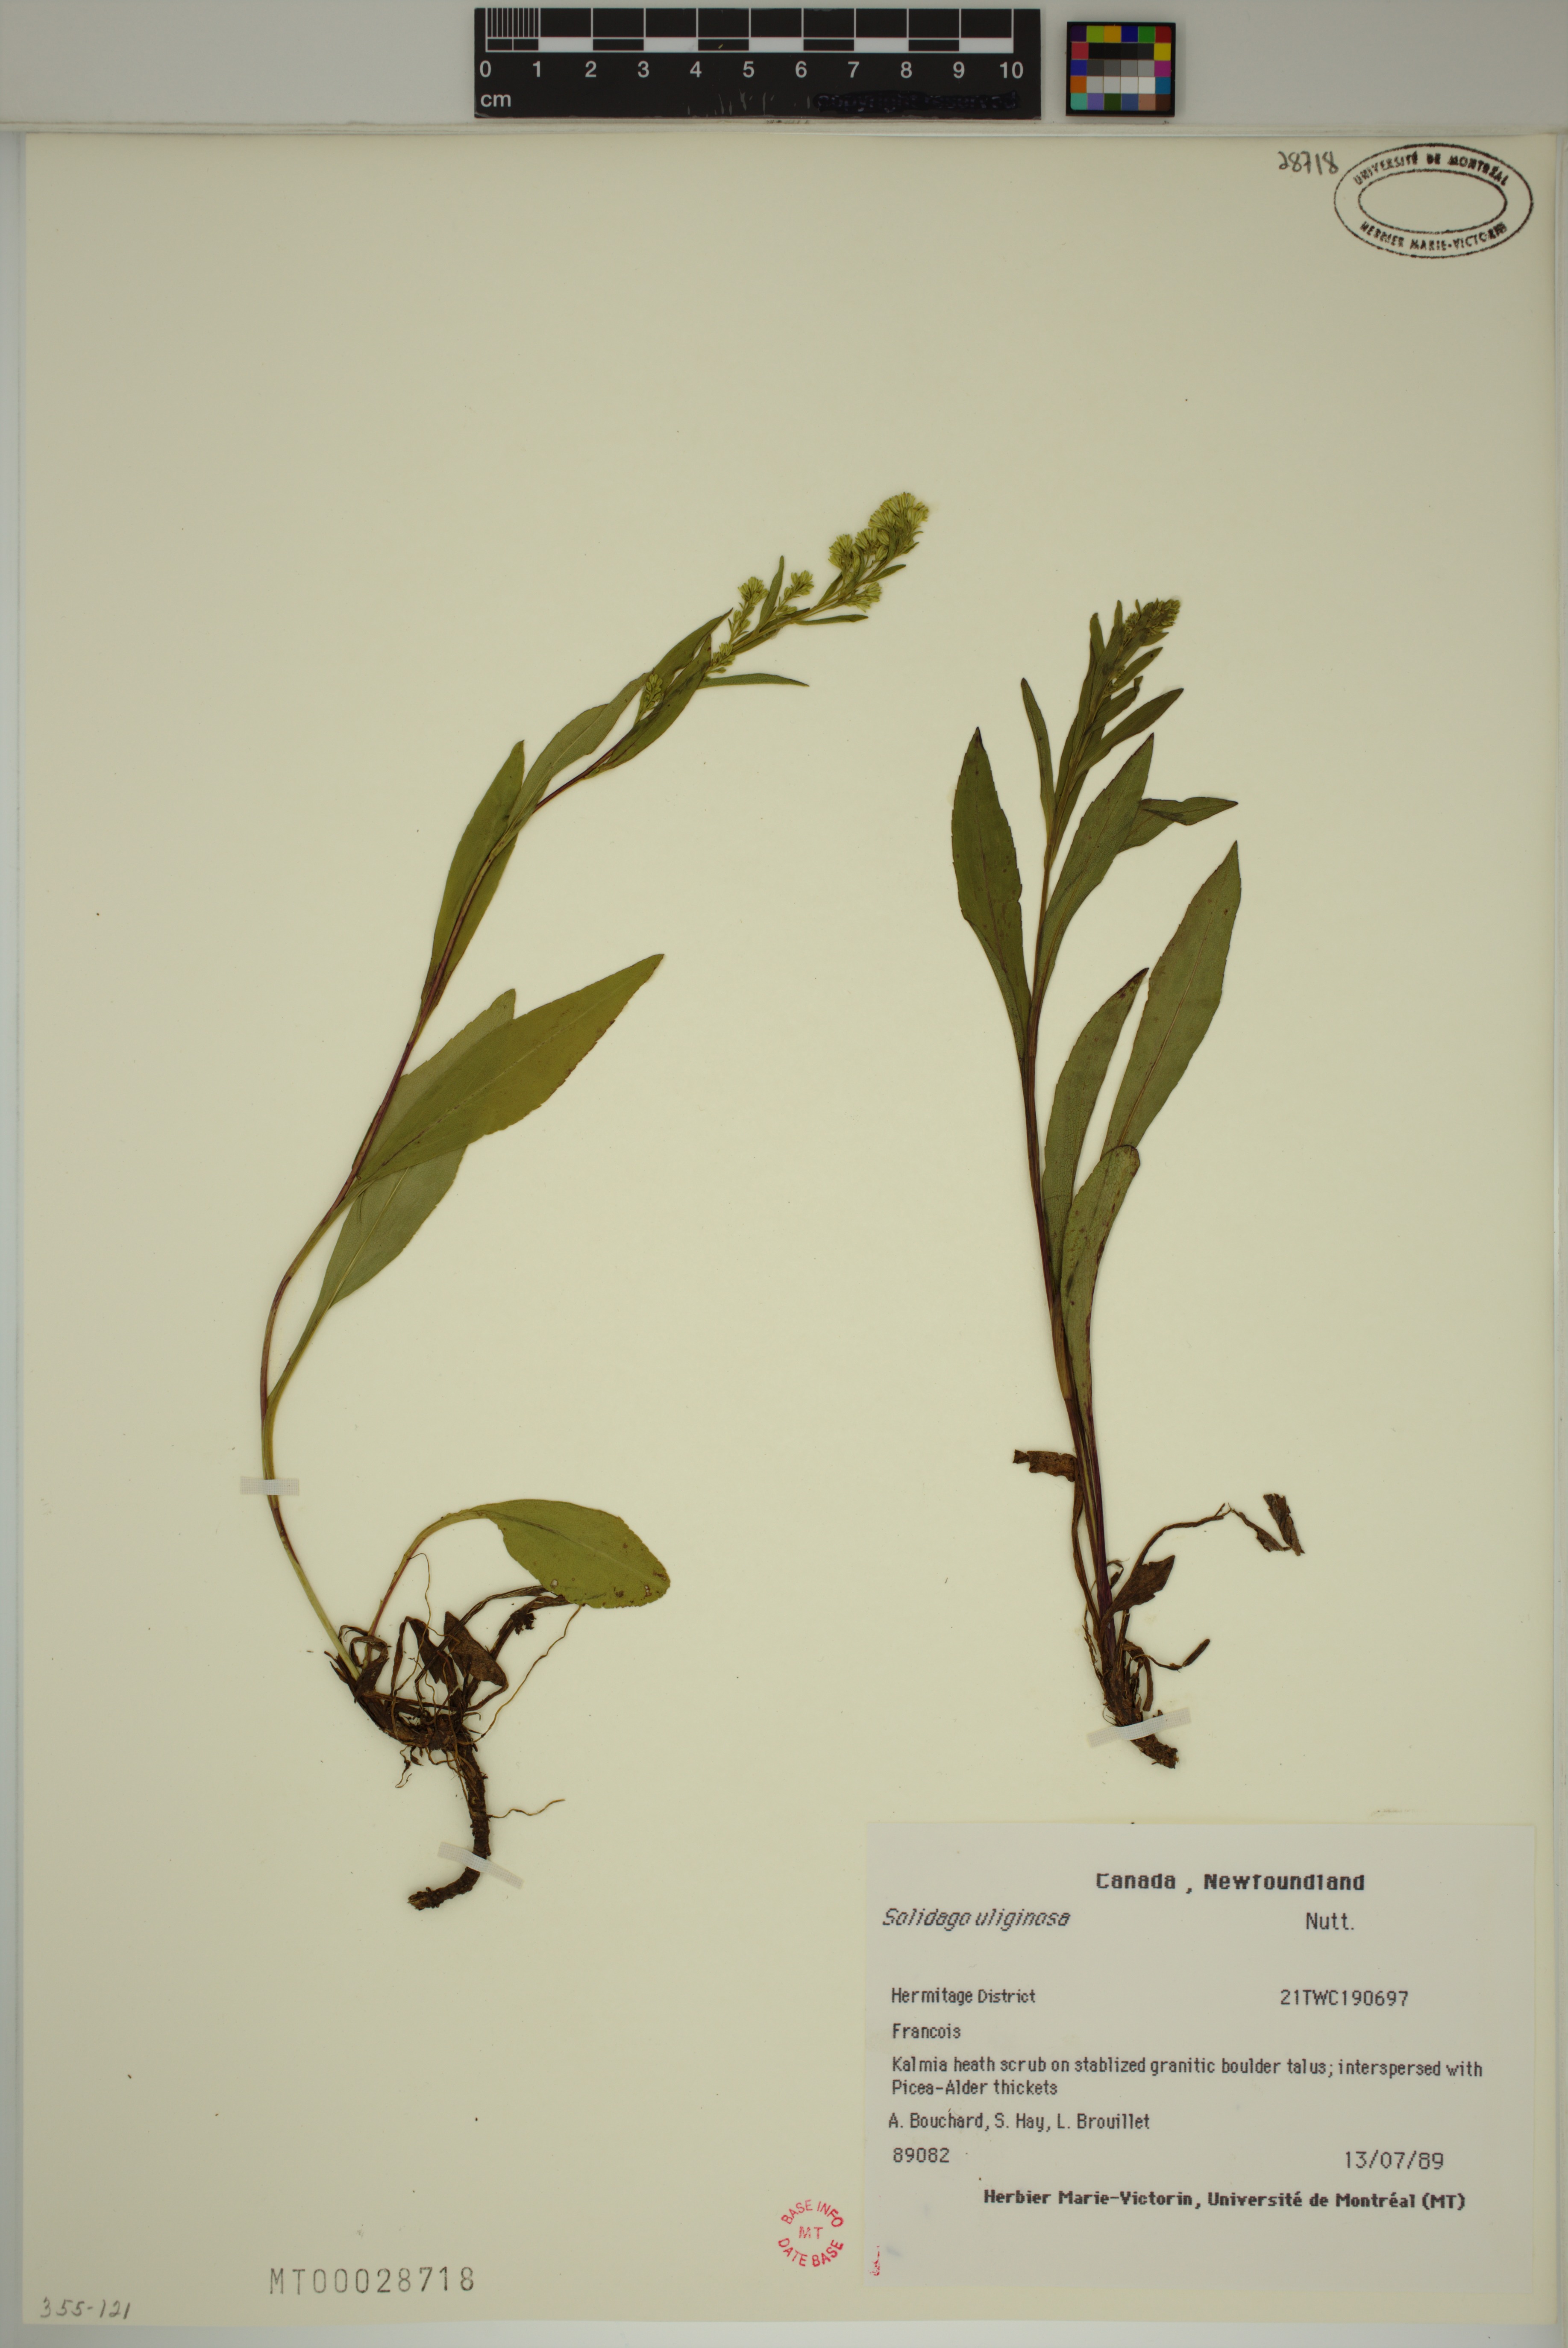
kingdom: Plantae
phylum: Tracheophyta
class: Magnoliopsida
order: Asterales
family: Asteraceae
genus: Solidago
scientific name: Solidago uliginosa
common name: Bog goldenrod
